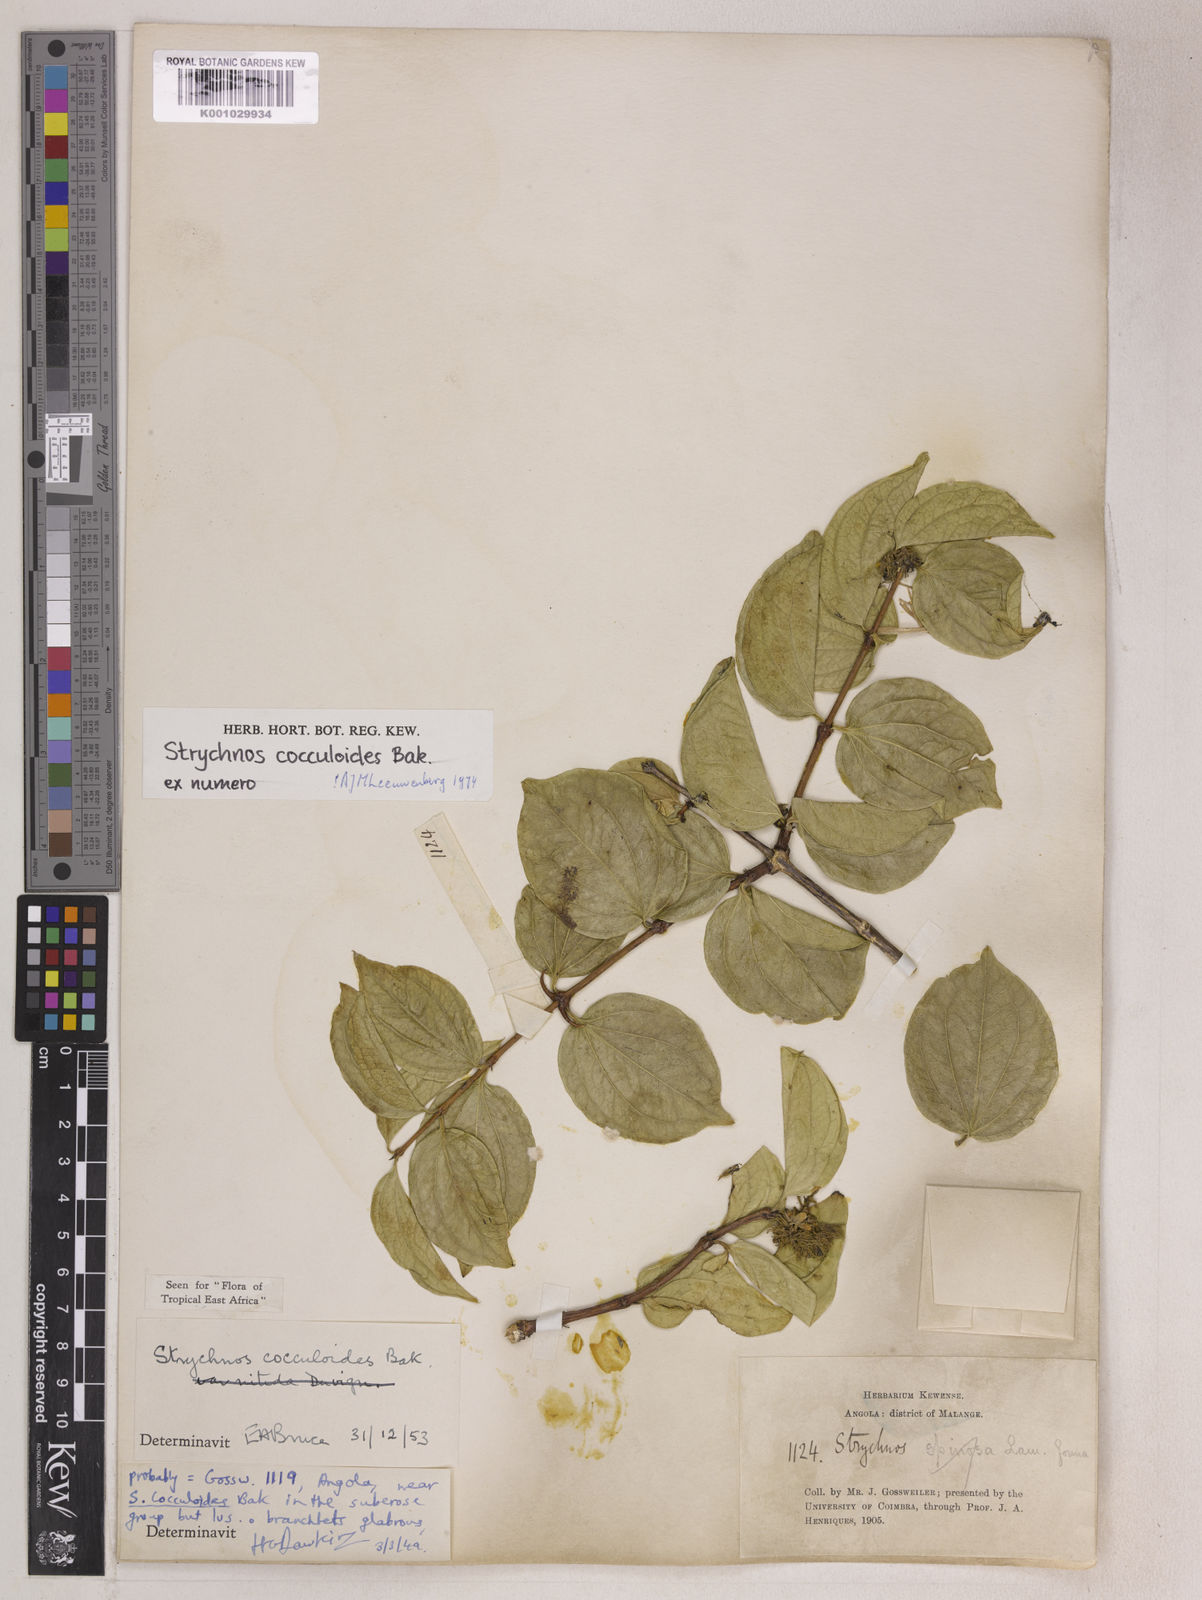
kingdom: Plantae
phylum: Tracheophyta
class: Magnoliopsida
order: Gentianales
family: Loganiaceae
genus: Strychnos
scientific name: Strychnos cocculoides
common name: Corky-bark monkey-orange
